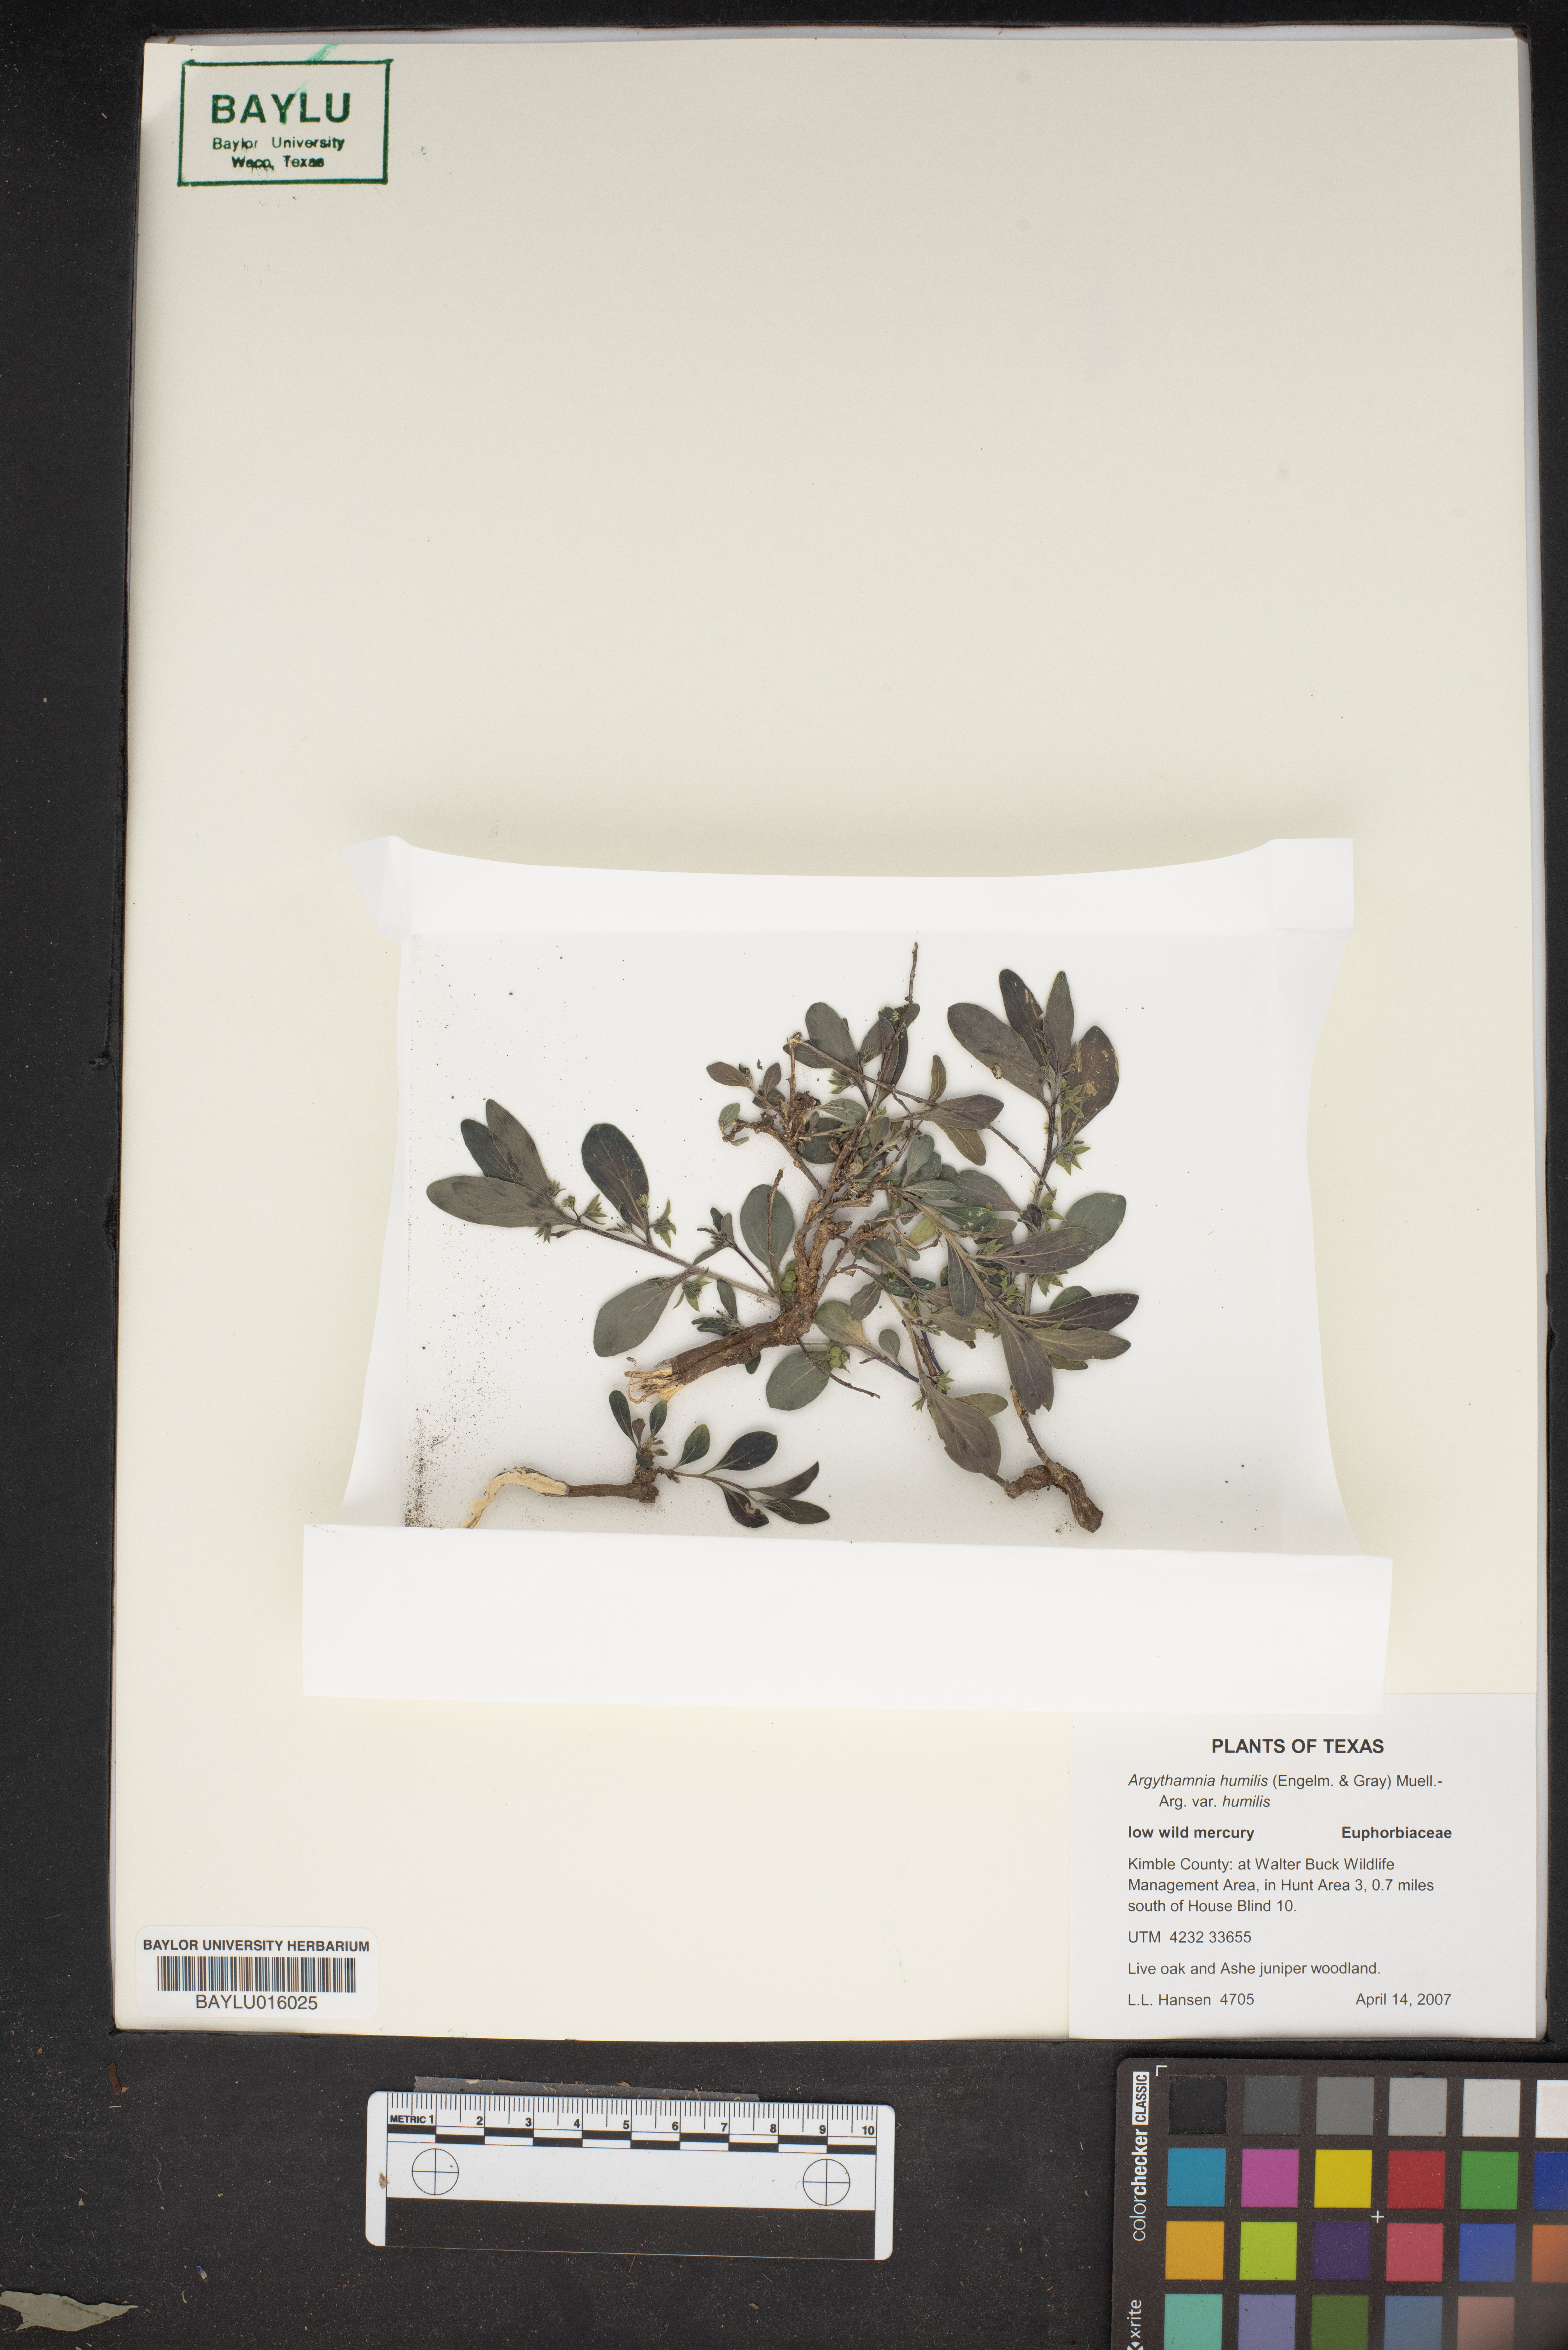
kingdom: Plantae
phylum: Tracheophyta
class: Magnoliopsida
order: Malpighiales
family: Euphorbiaceae
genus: Ditaxis
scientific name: Ditaxis humilis
